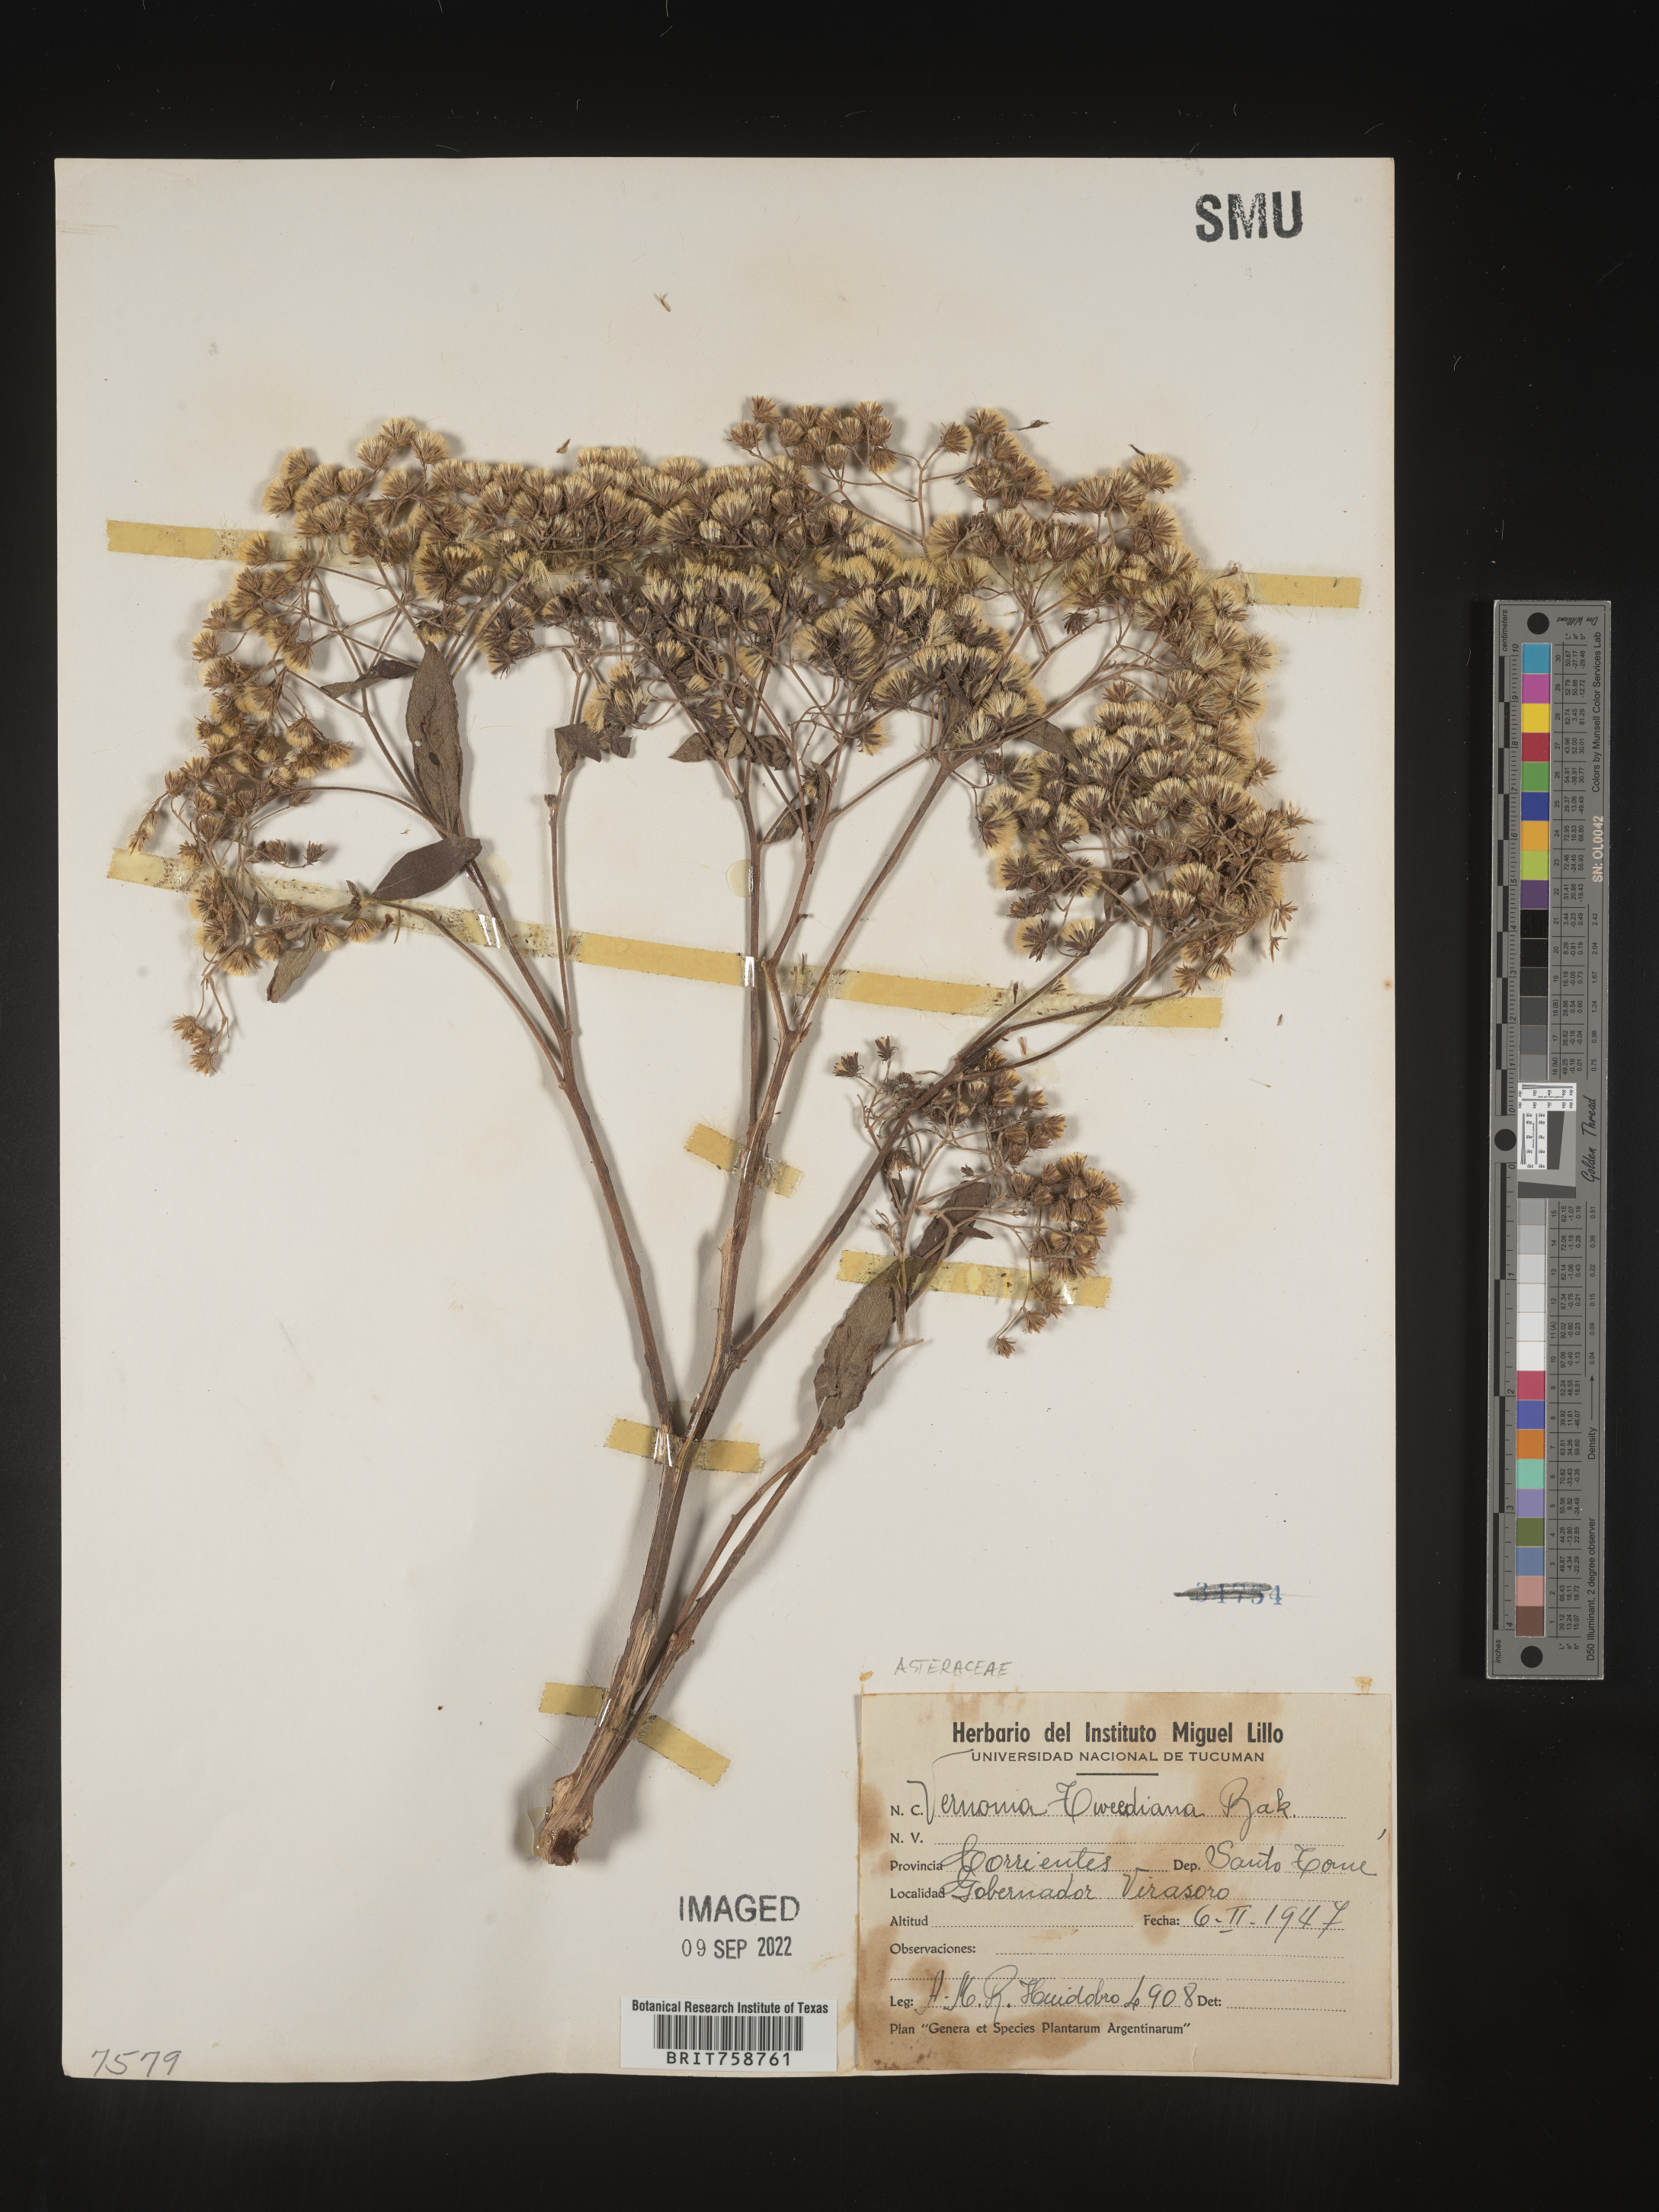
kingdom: Plantae
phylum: Tracheophyta
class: Magnoliopsida
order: Asterales
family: Asteraceae
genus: Vernonia
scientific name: Vernonia
